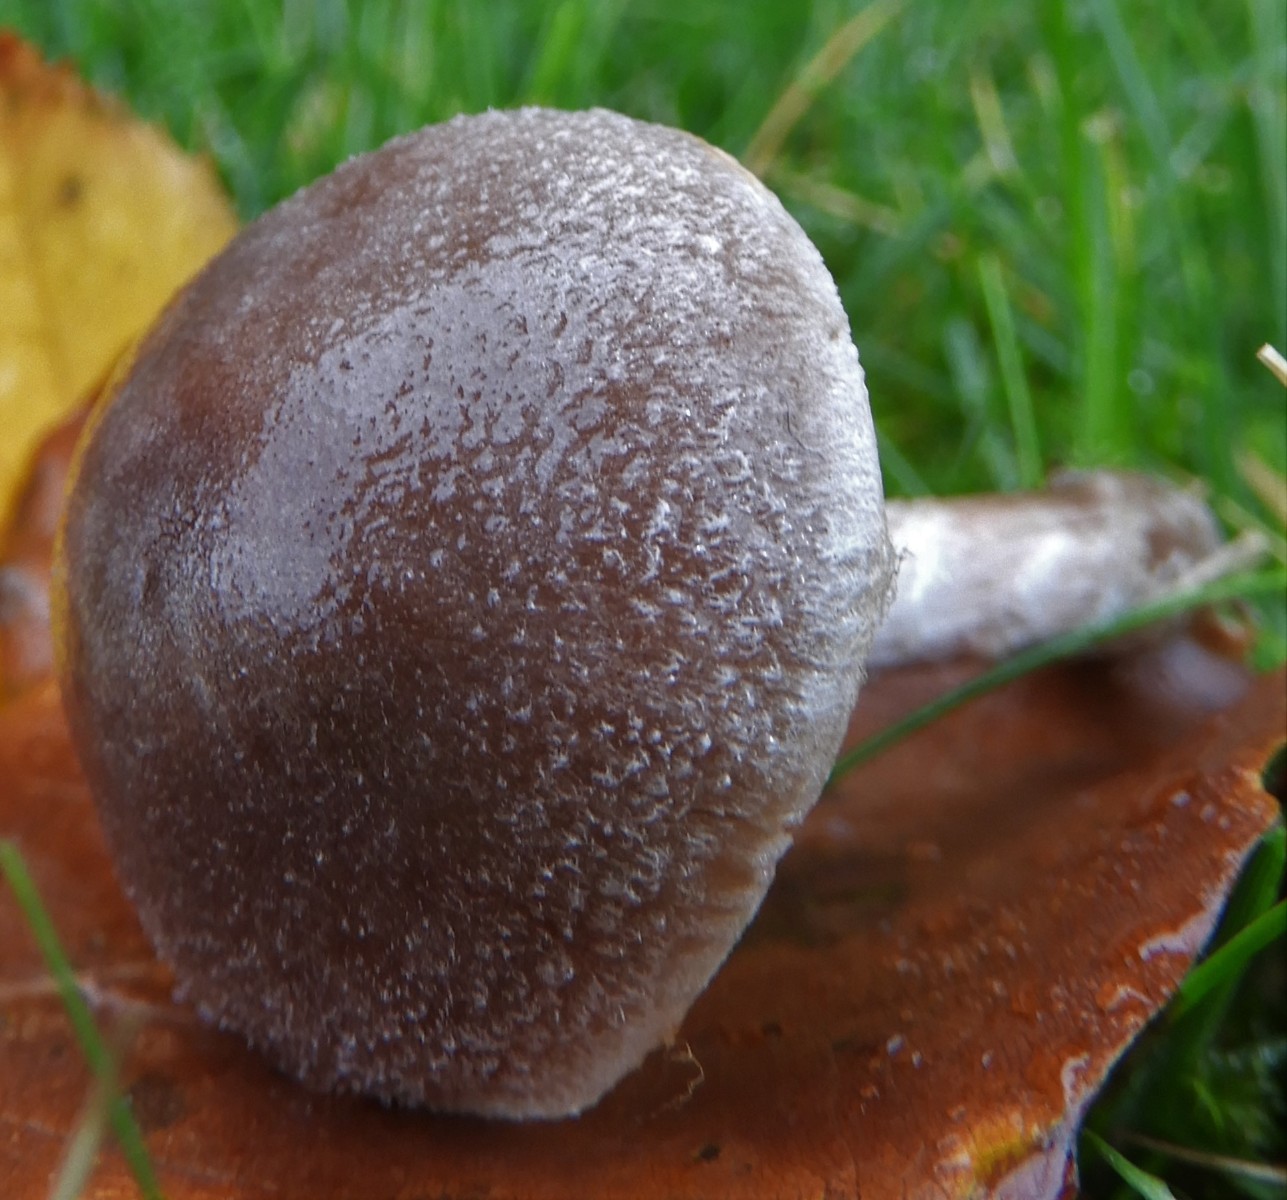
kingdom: Fungi
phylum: Basidiomycota
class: Agaricomycetes
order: Agaricales
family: Cortinariaceae
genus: Cortinarius
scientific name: Cortinarius hemitrichus
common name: hvidfnugget slørhat
